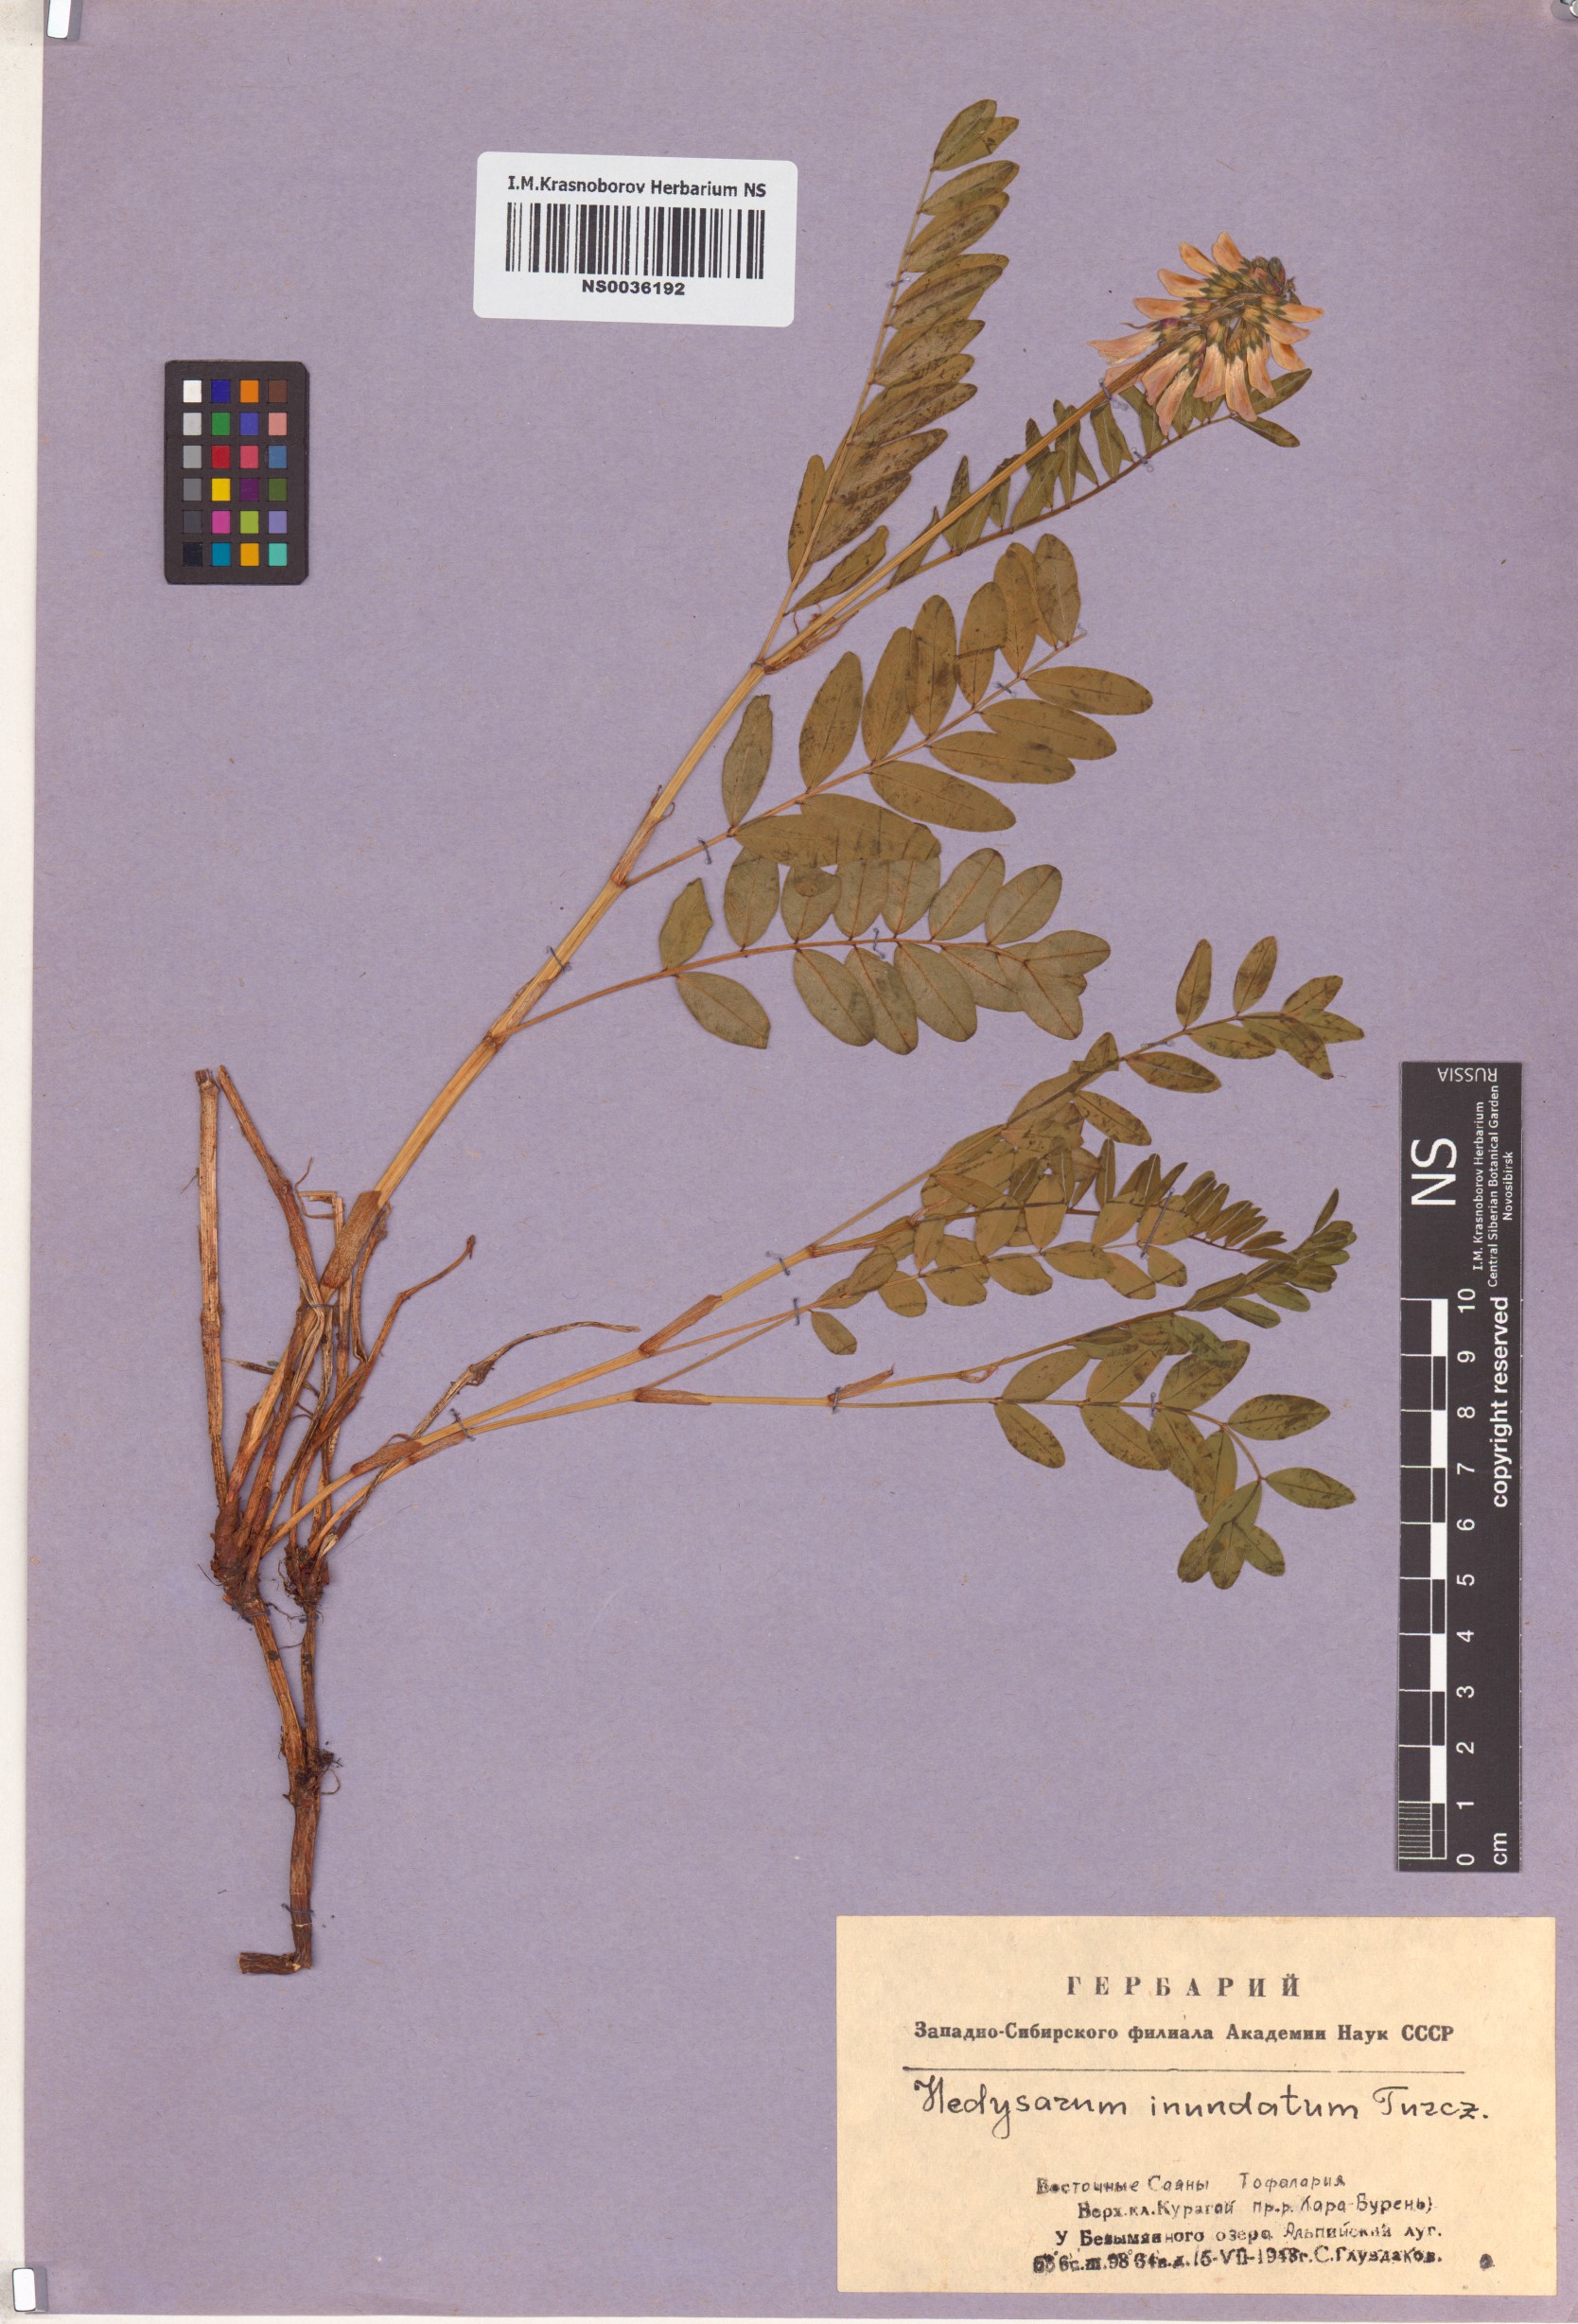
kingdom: Plantae
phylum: Tracheophyta
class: Magnoliopsida
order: Fabales
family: Fabaceae
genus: Hedysarum
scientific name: Hedysarum inundatum
